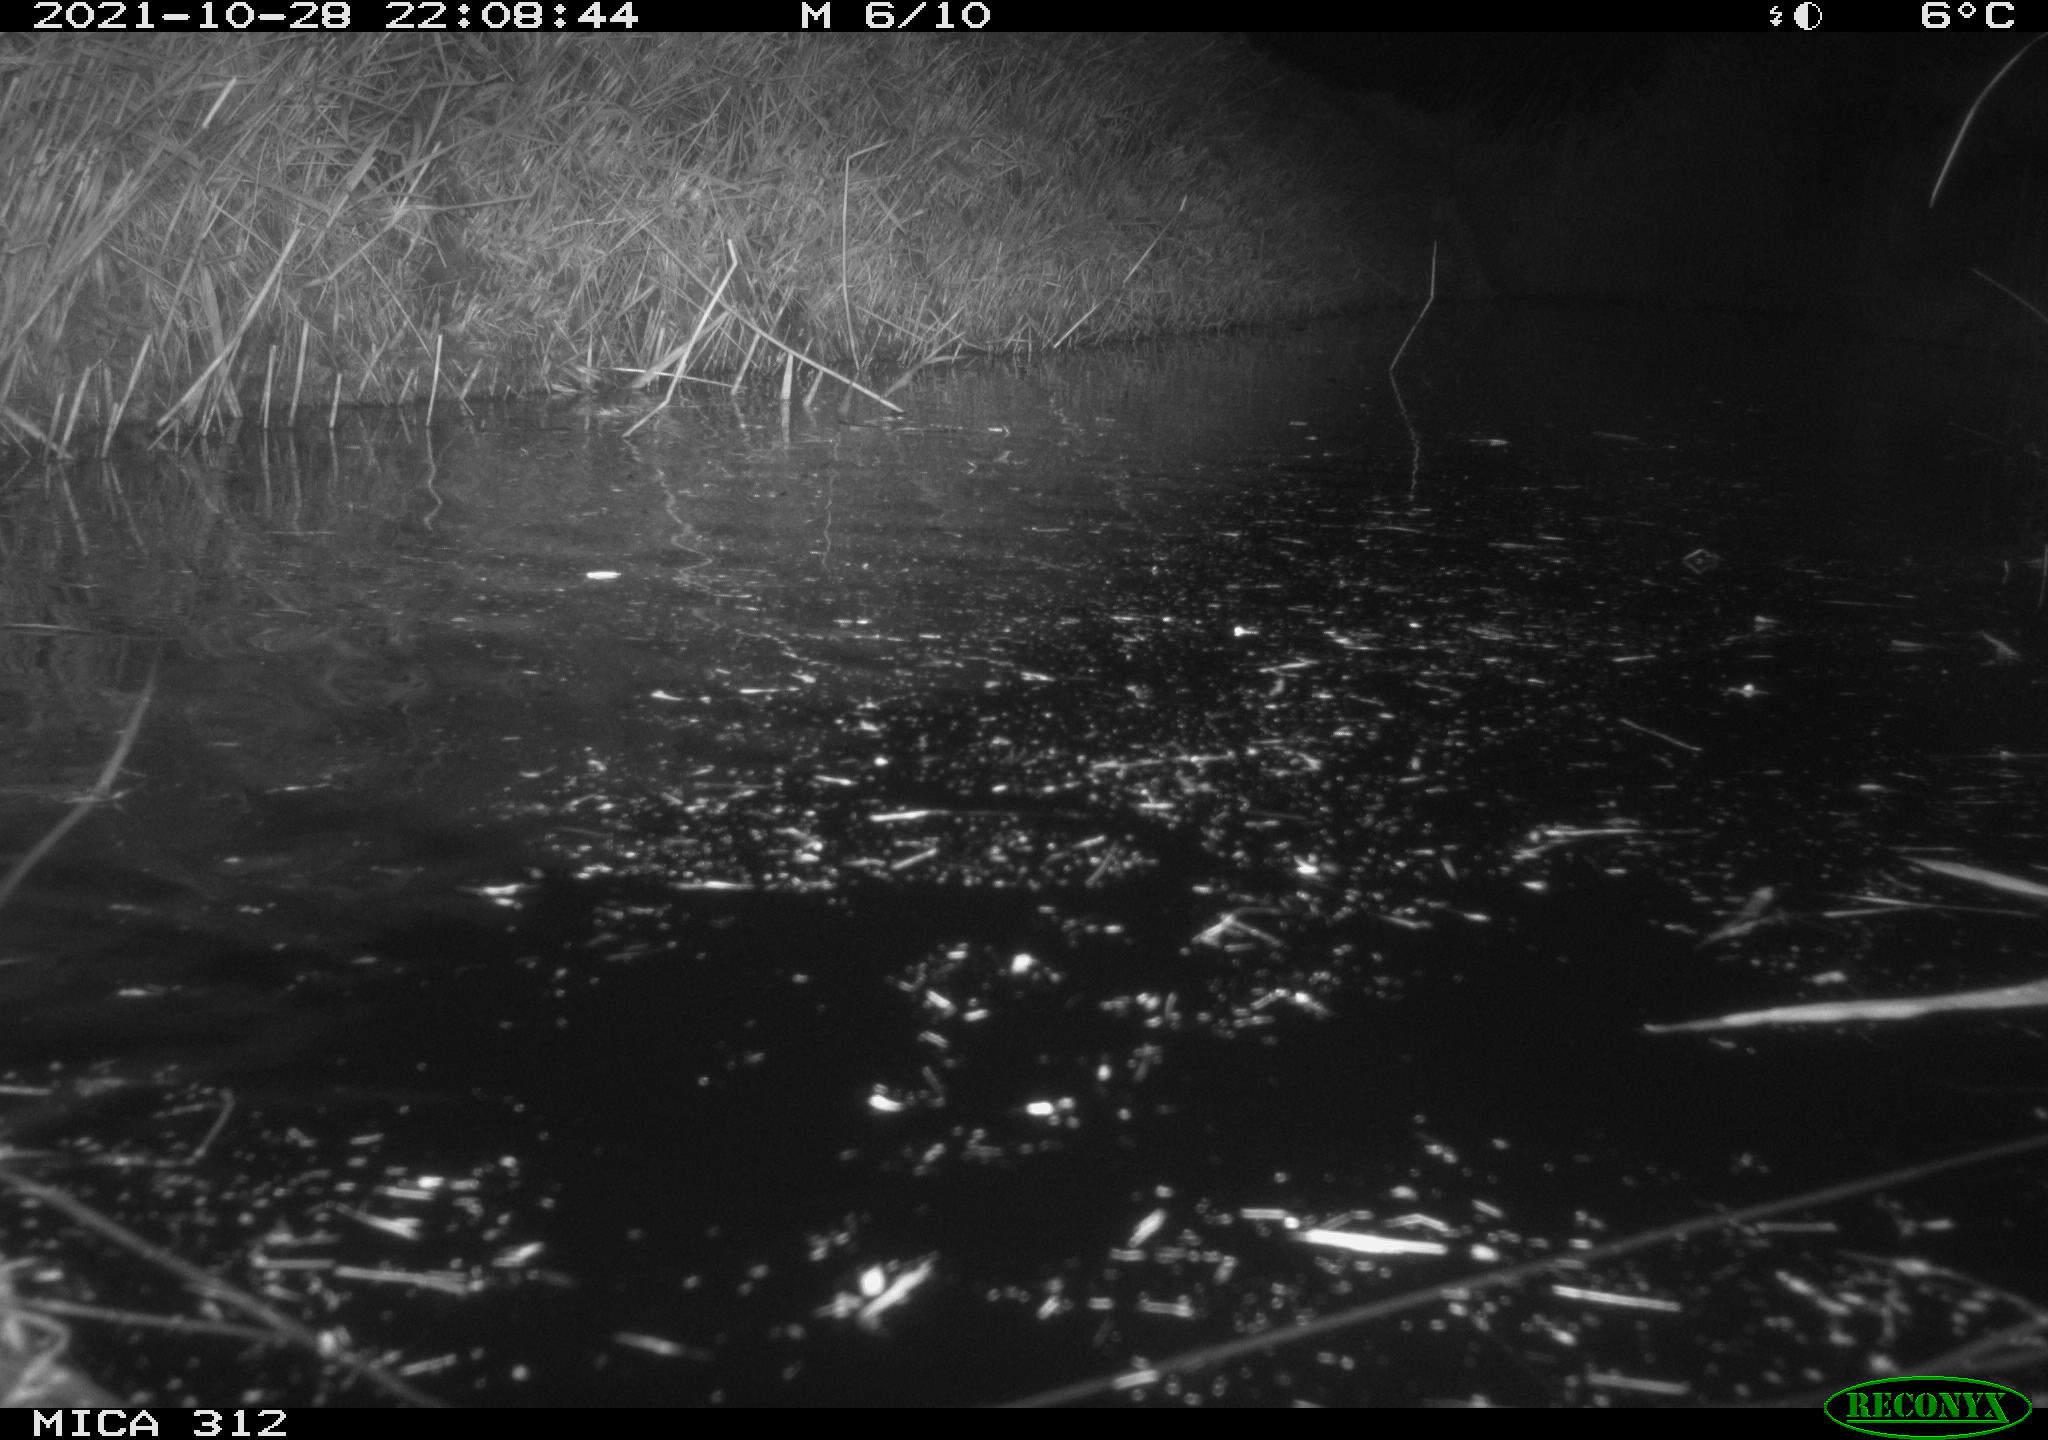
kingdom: Animalia
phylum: Chordata
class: Mammalia
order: Rodentia
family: Muridae
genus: Rattus
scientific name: Rattus norvegicus
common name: Brown rat
